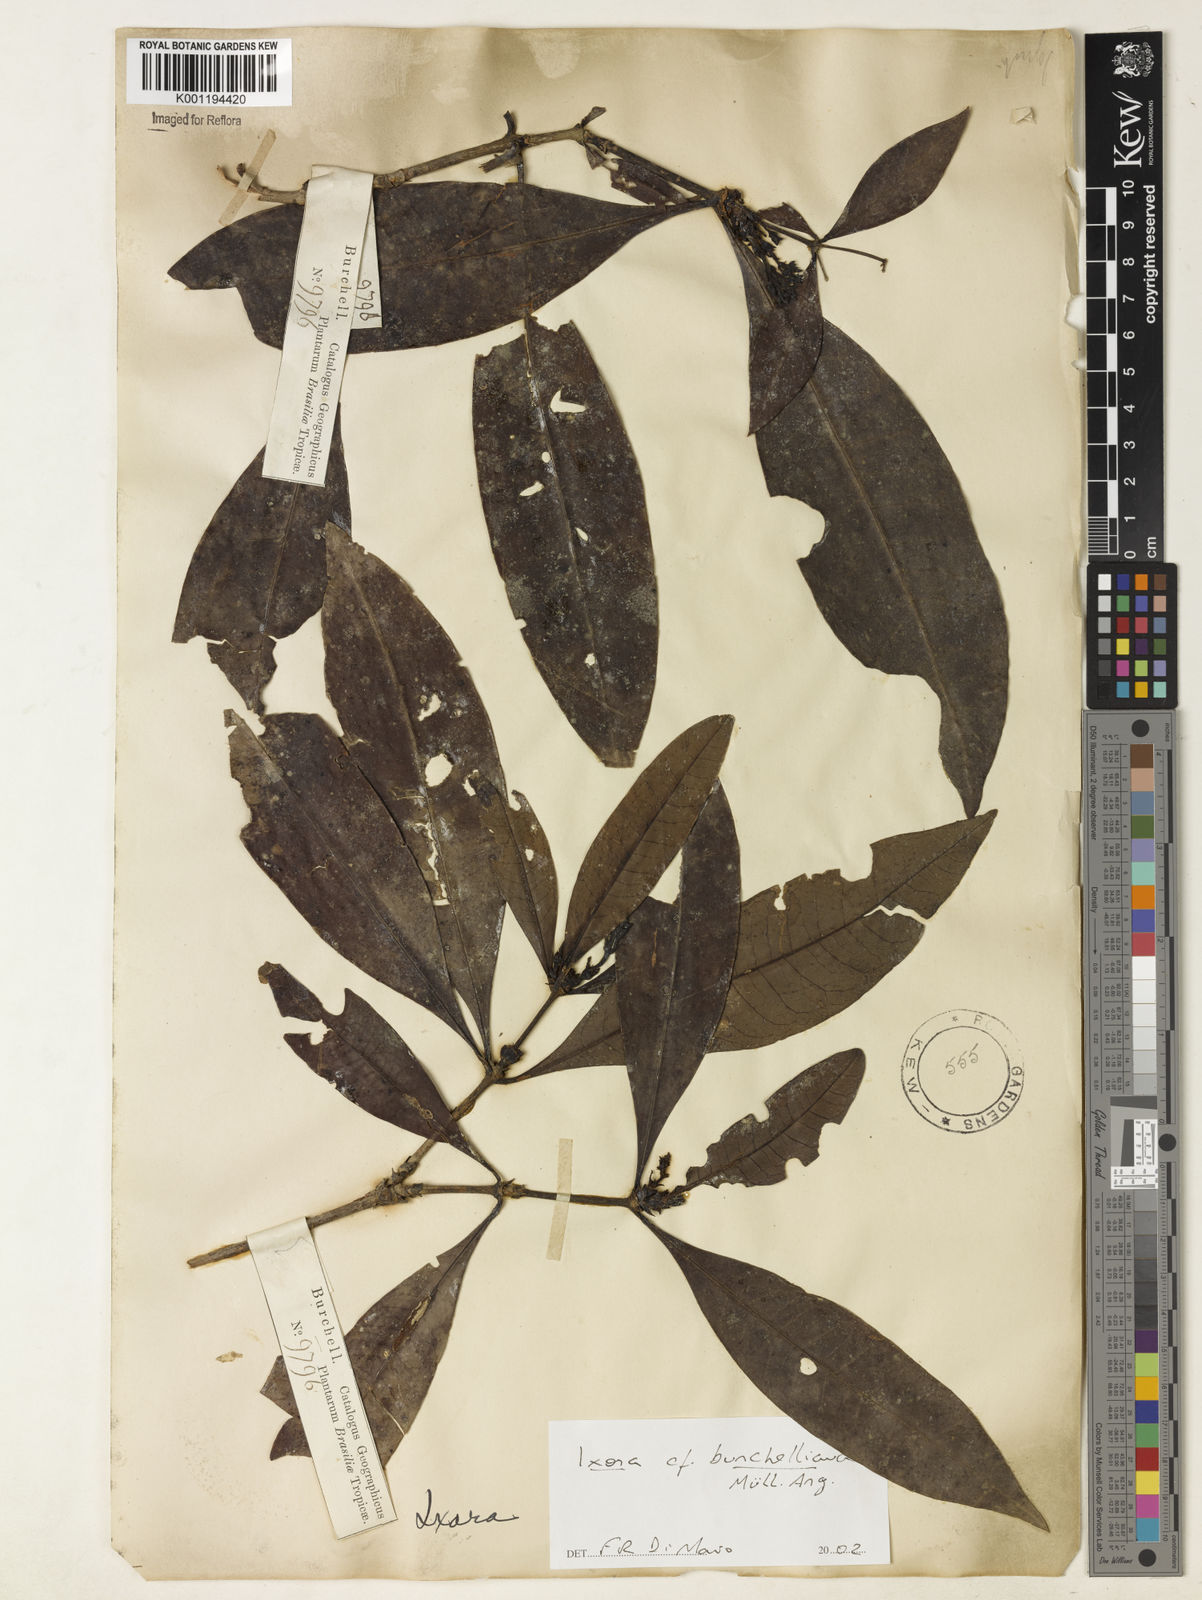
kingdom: Plantae
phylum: Tracheophyta
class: Magnoliopsida
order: Gentianales
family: Rubiaceae
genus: Ixora
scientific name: Ixora
